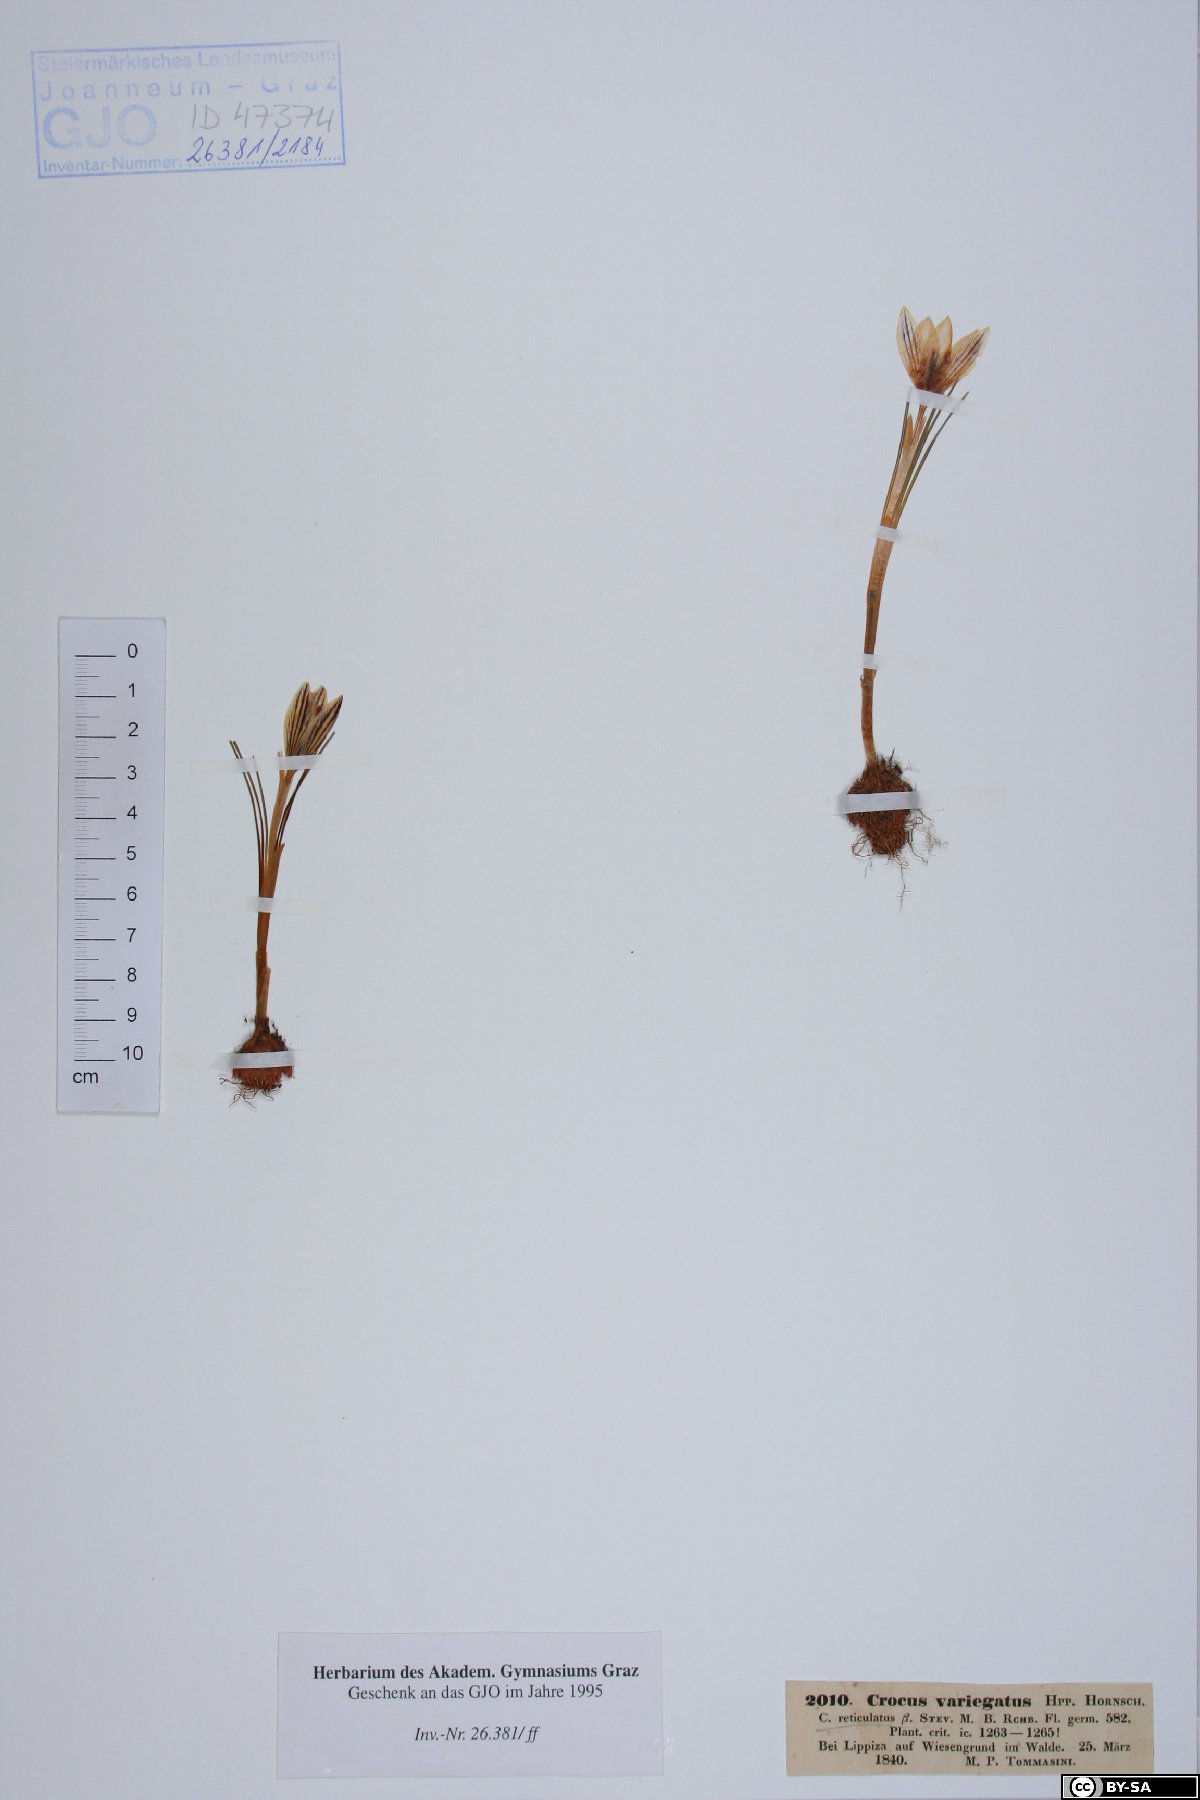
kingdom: Plantae
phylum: Tracheophyta
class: Liliopsida
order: Asparagales
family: Iridaceae
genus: Crocus
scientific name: Crocus variegatus
